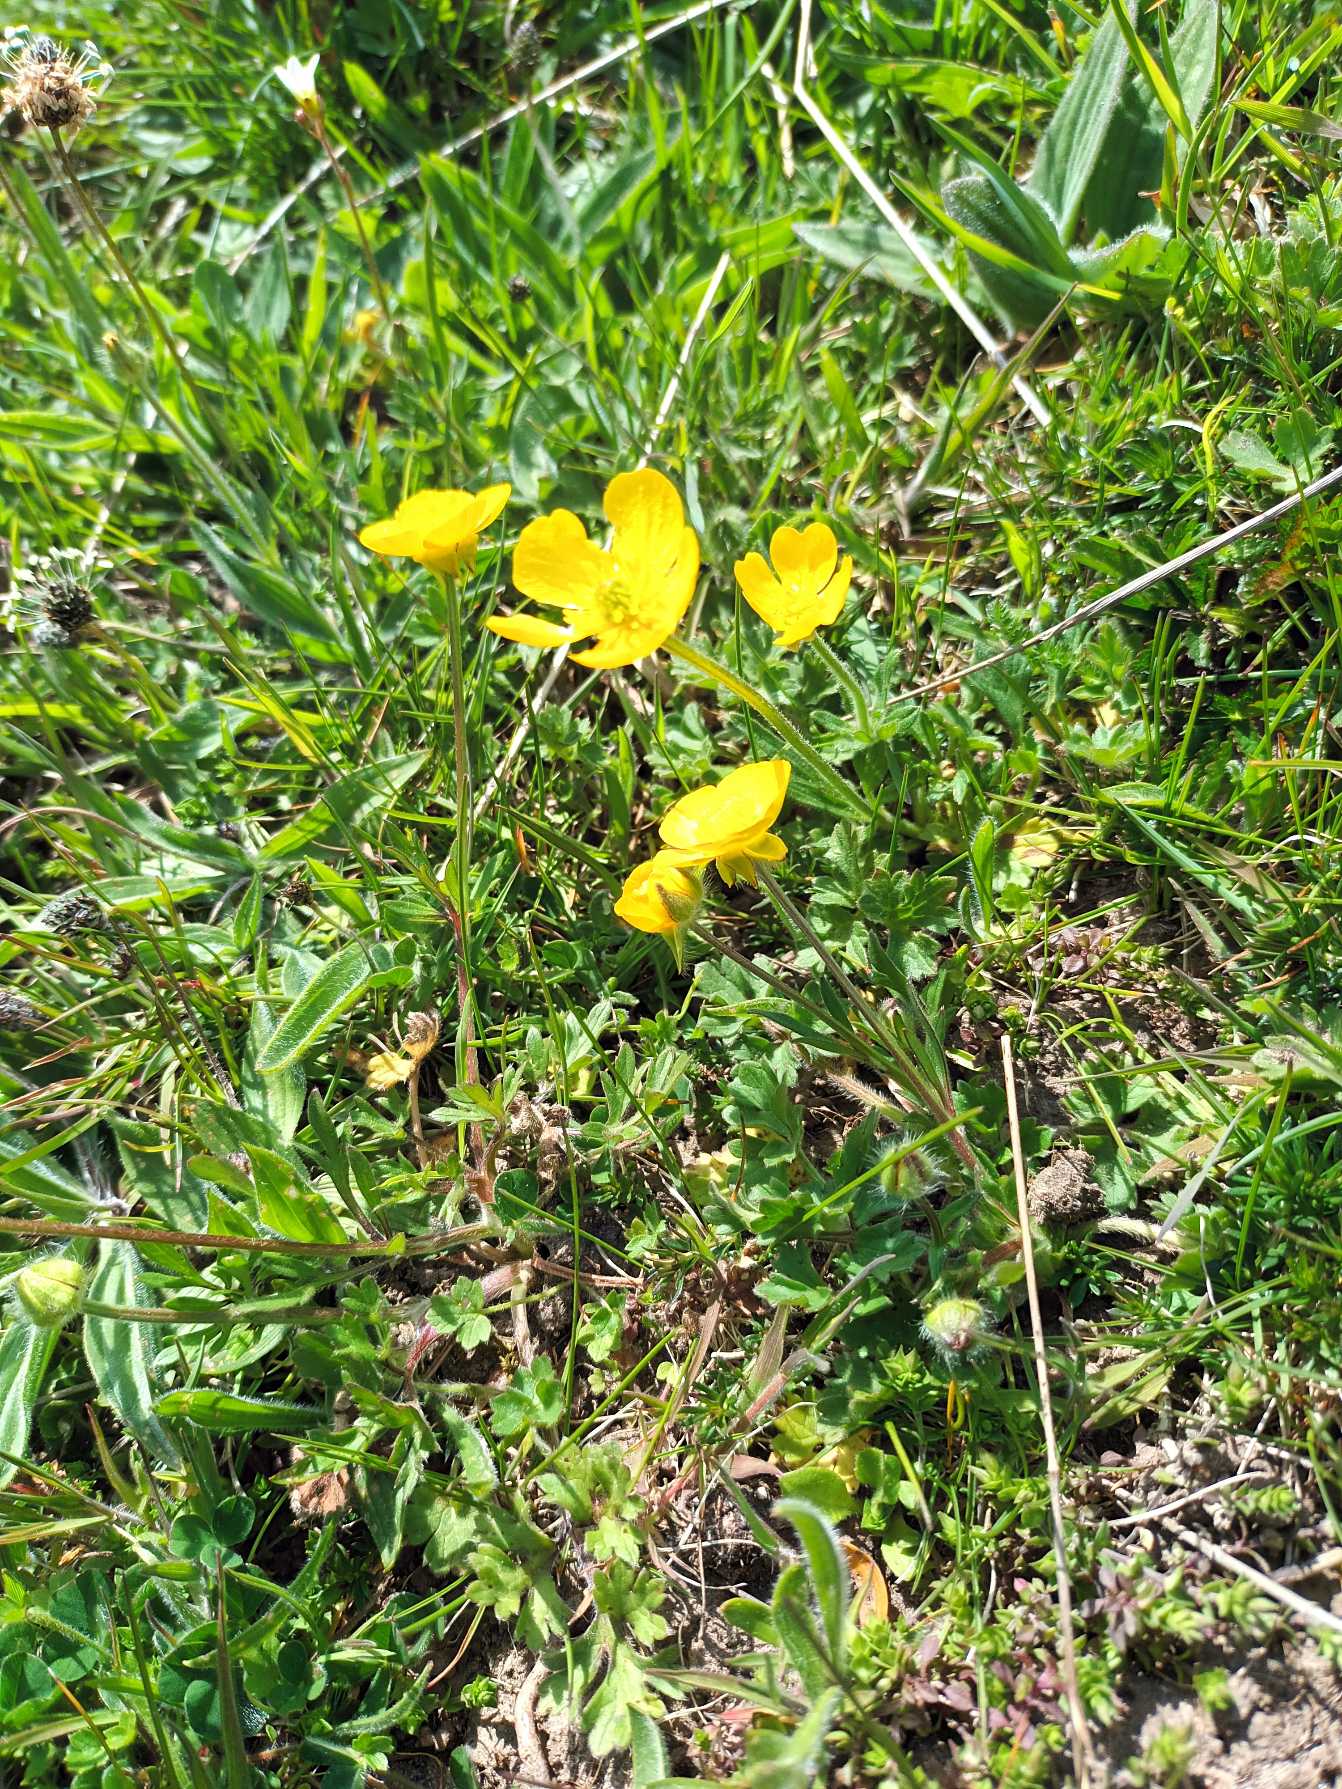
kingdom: Plantae
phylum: Tracheophyta
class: Magnoliopsida
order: Ranunculales
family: Ranunculaceae
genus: Ranunculus
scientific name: Ranunculus bulbosus
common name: Knold-ranunkel
